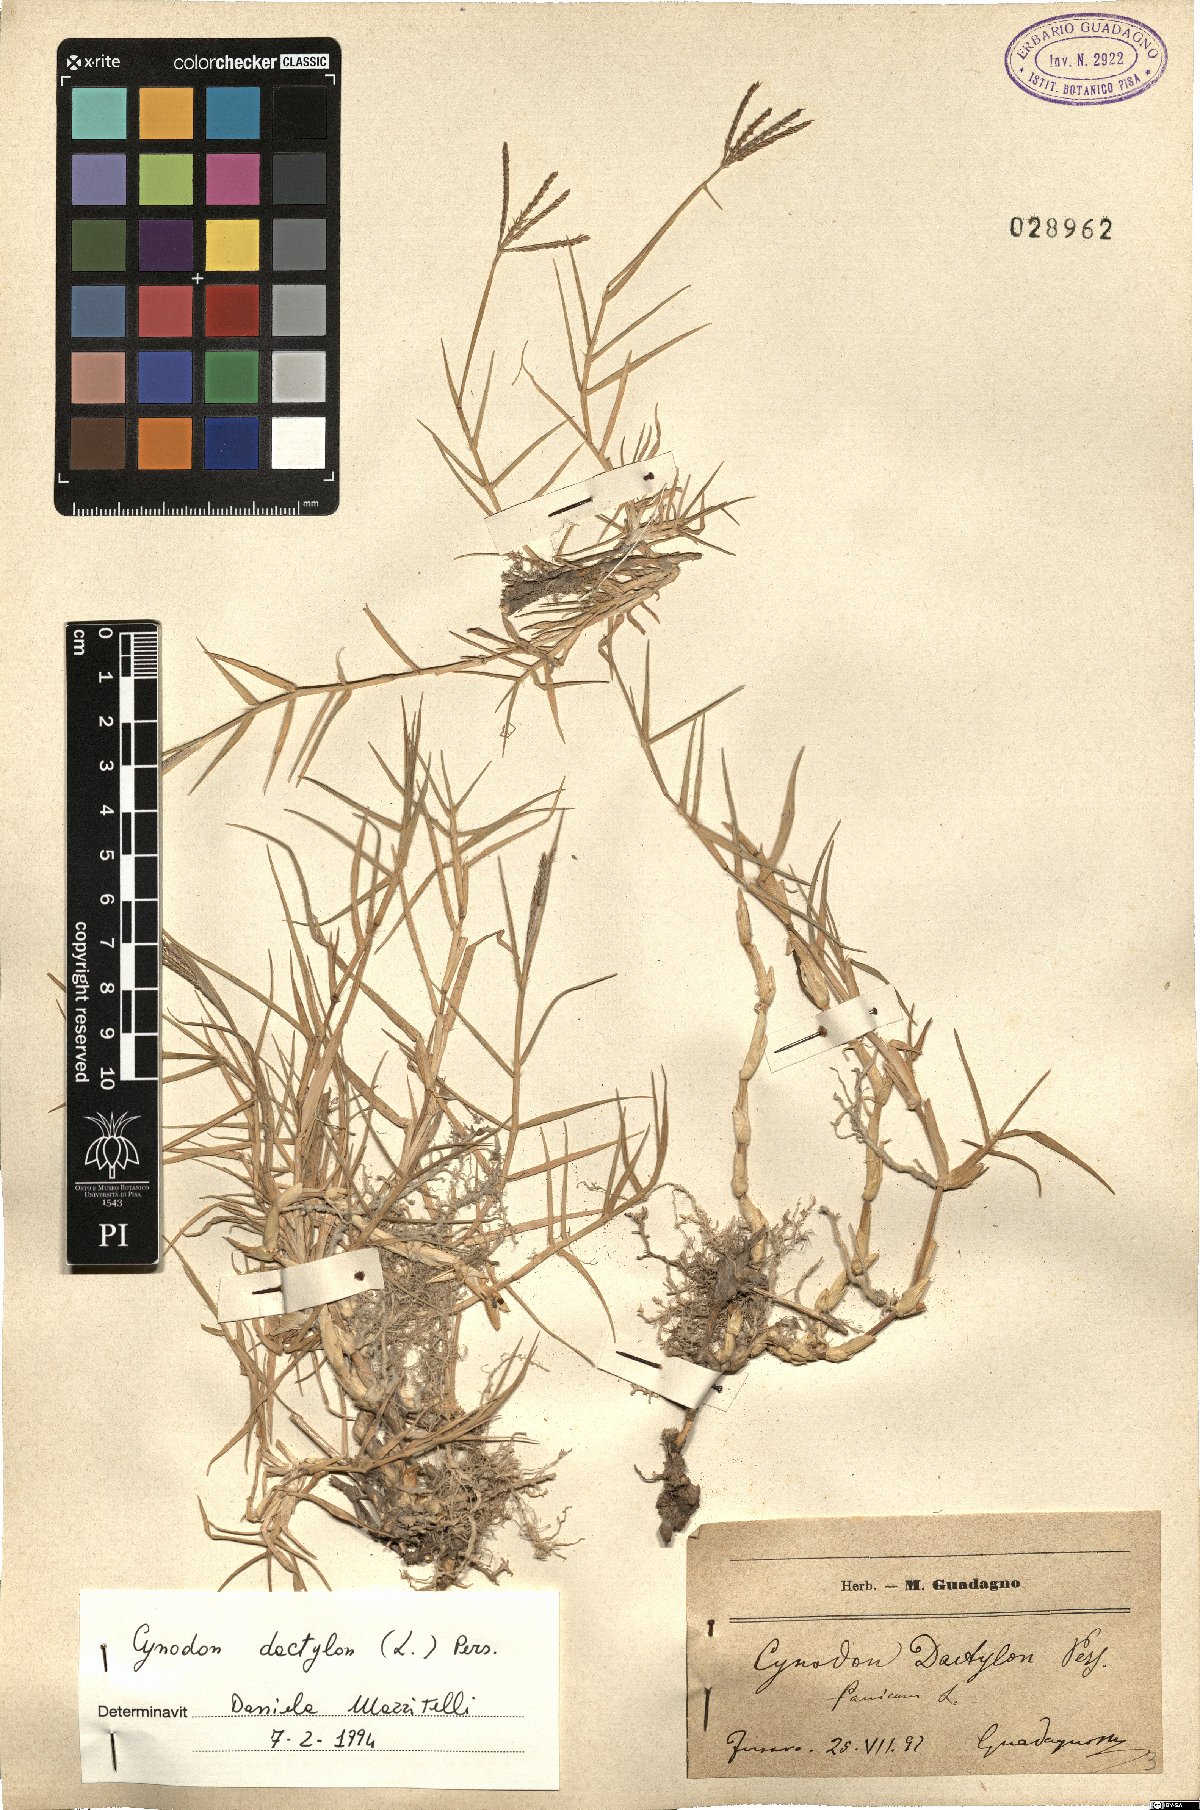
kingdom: Plantae
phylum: Tracheophyta
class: Liliopsida
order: Poales
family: Poaceae
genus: Cynodon
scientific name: Cynodon dactylon
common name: Bermuda grass
